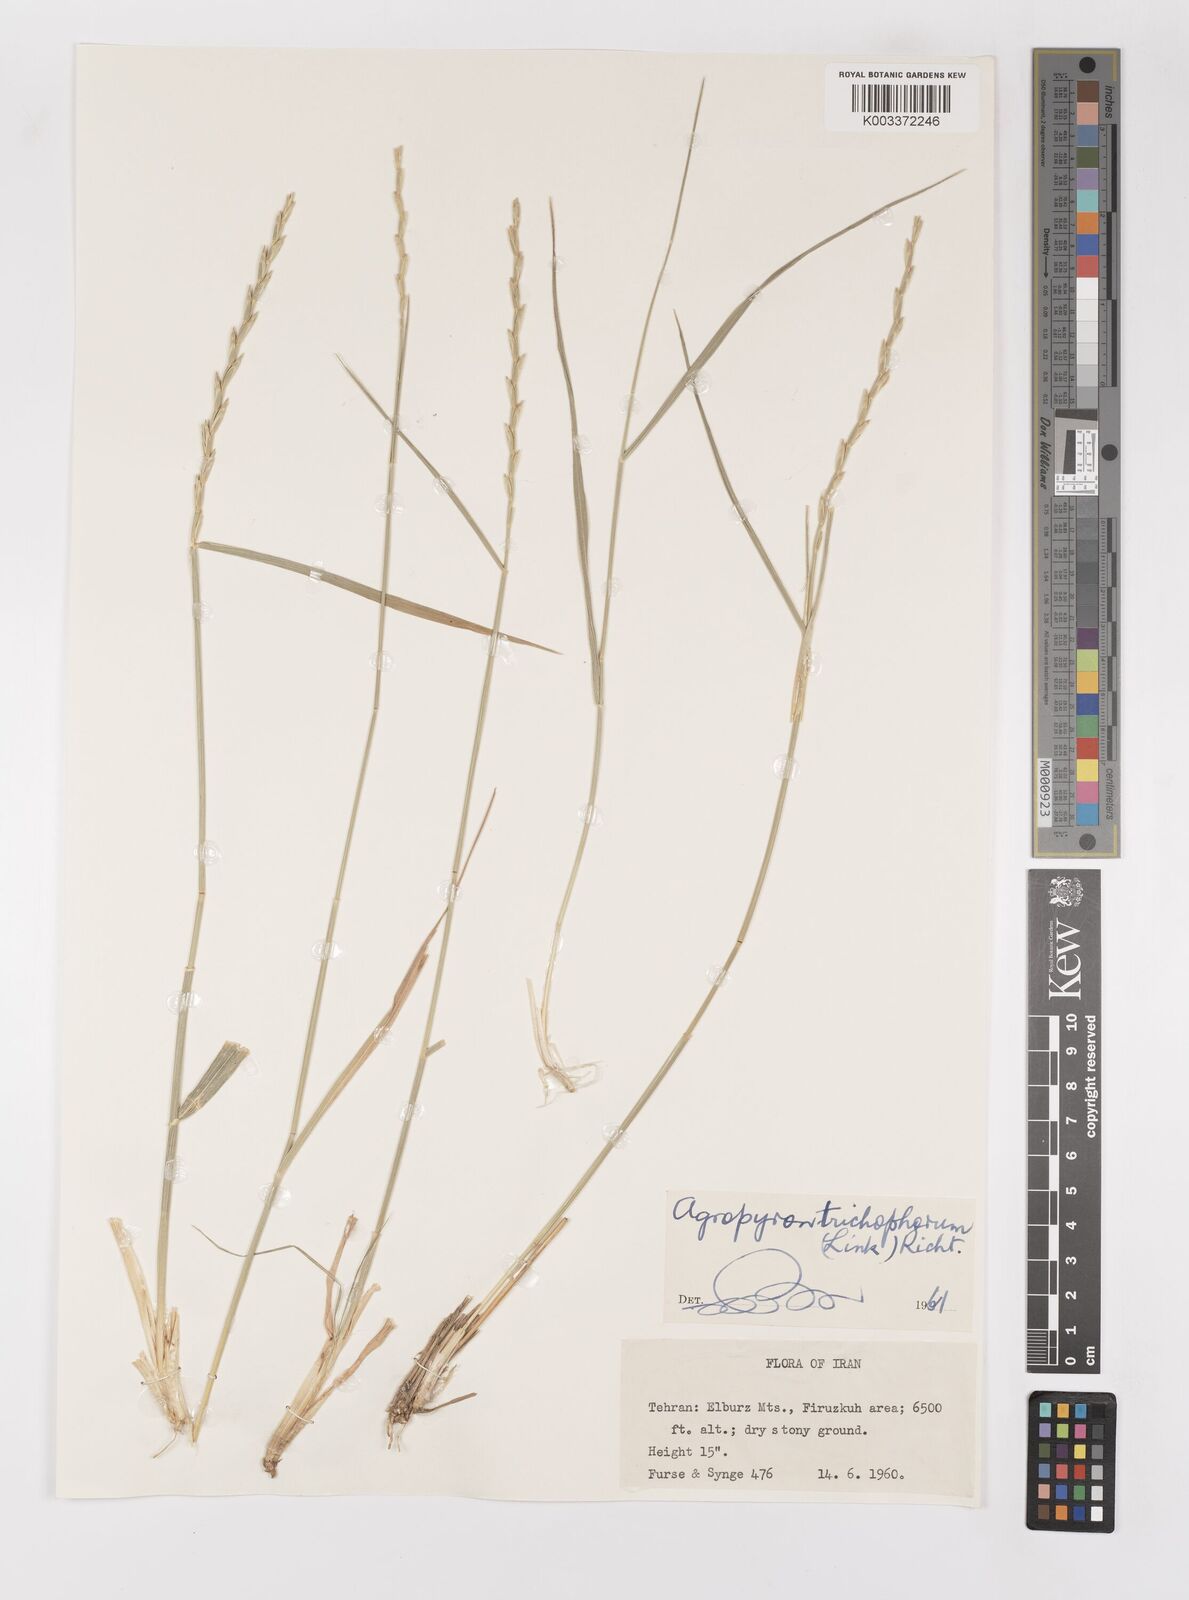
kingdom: Plantae
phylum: Tracheophyta
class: Liliopsida
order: Poales
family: Poaceae
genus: Thinopyrum
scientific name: Thinopyrum intermedium
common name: Intermediate wheatgrass
